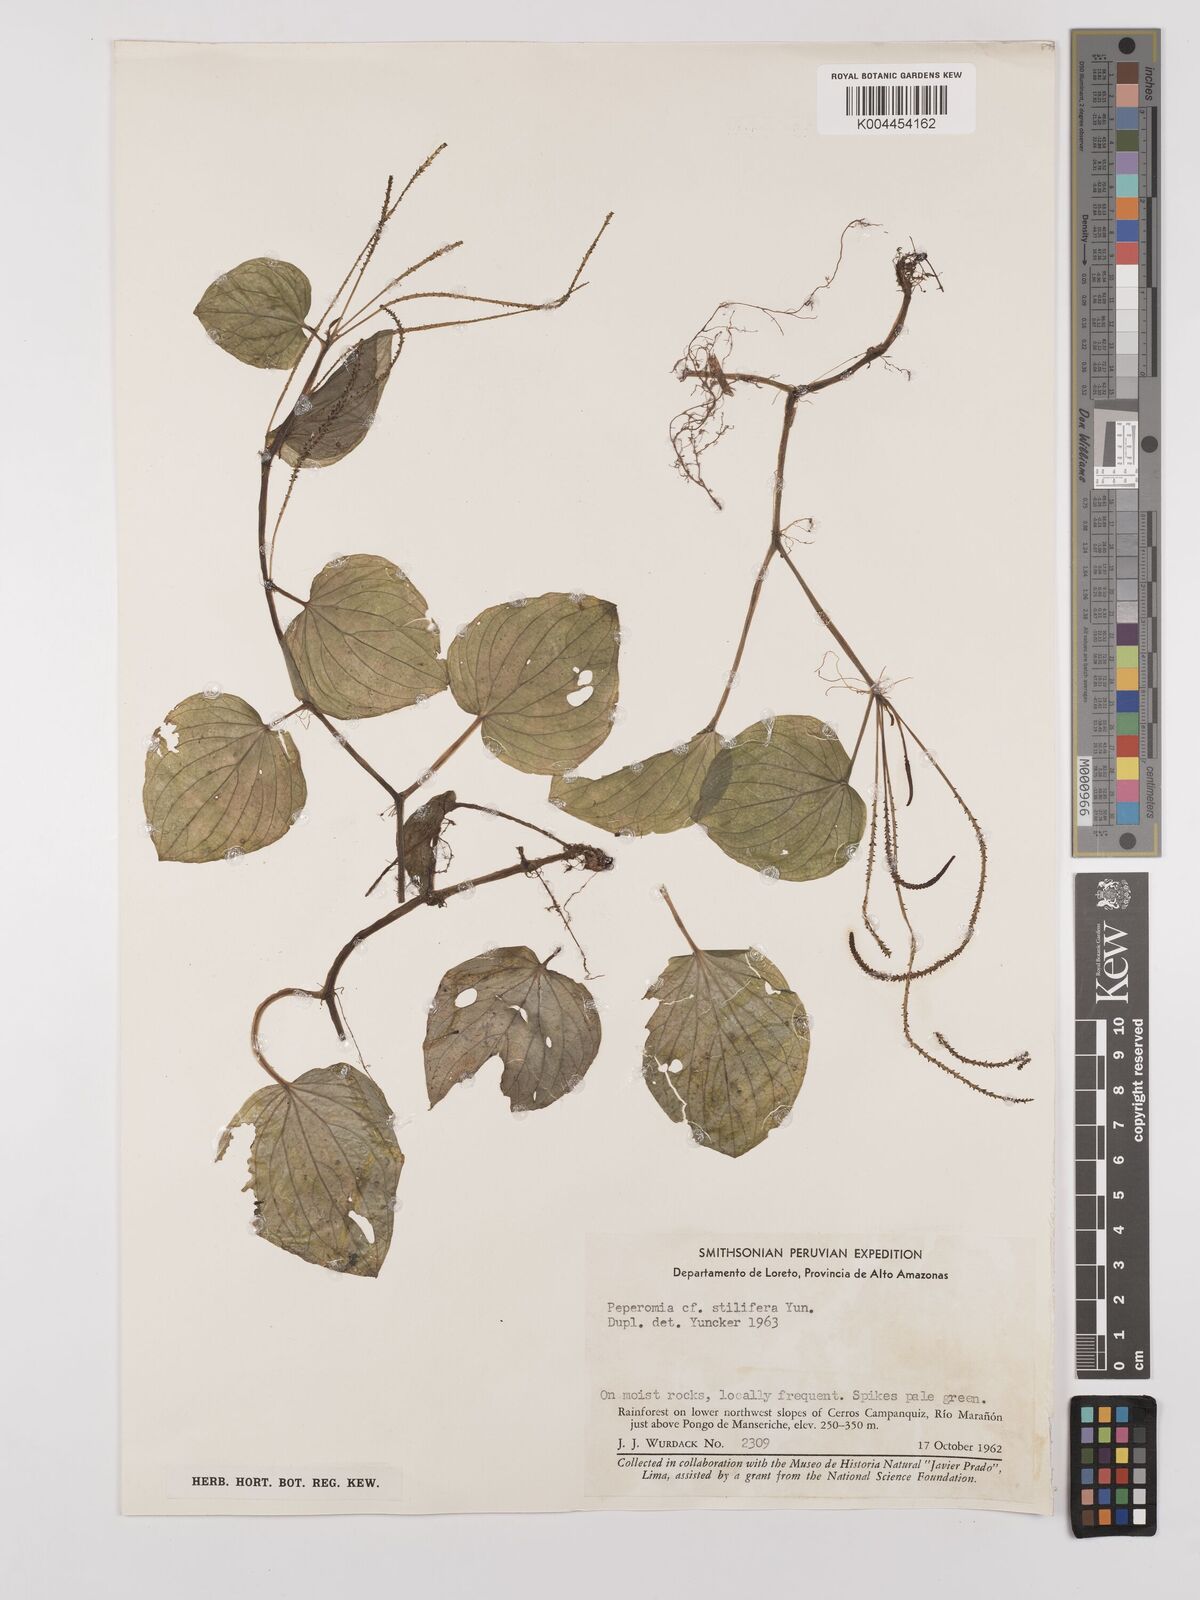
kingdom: Plantae
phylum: Tracheophyta
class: Magnoliopsida
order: Piperales
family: Piperaceae
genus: Peperomia
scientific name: Peperomia stilifera
